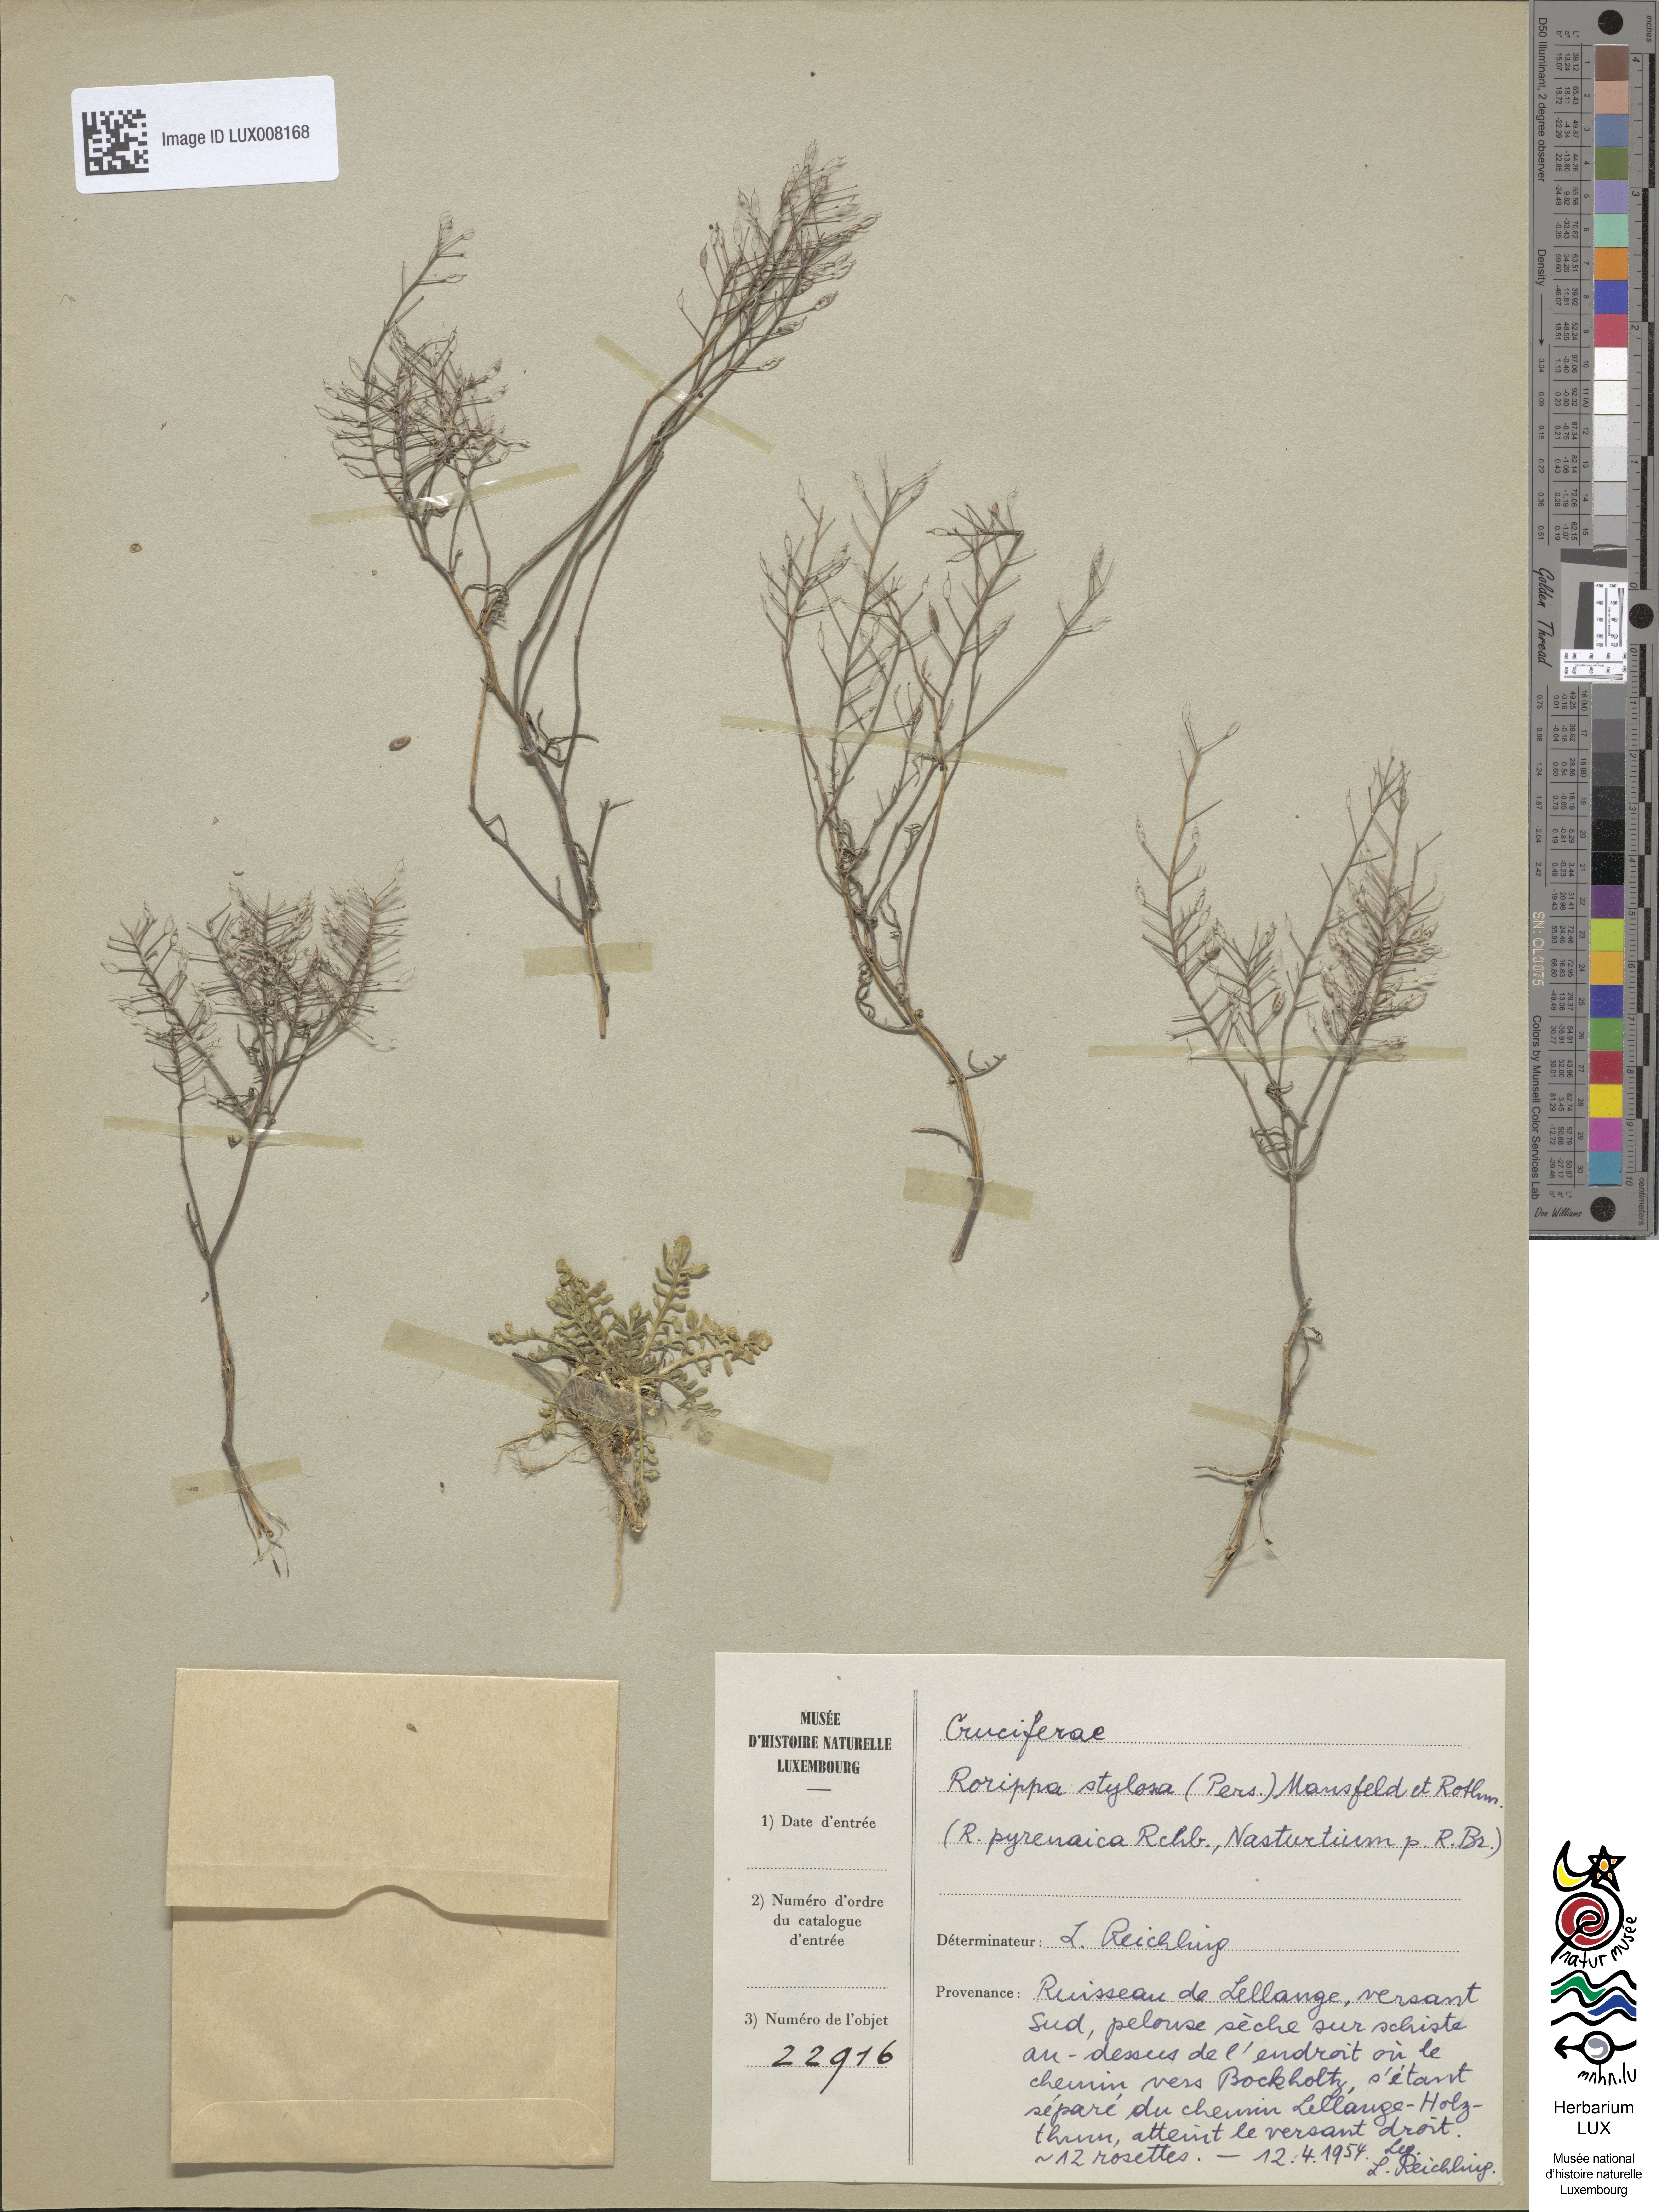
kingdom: Plantae
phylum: Tracheophyta
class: Magnoliopsida
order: Brassicales
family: Brassicaceae
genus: Rorippa
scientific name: Rorippa pyrenaica
